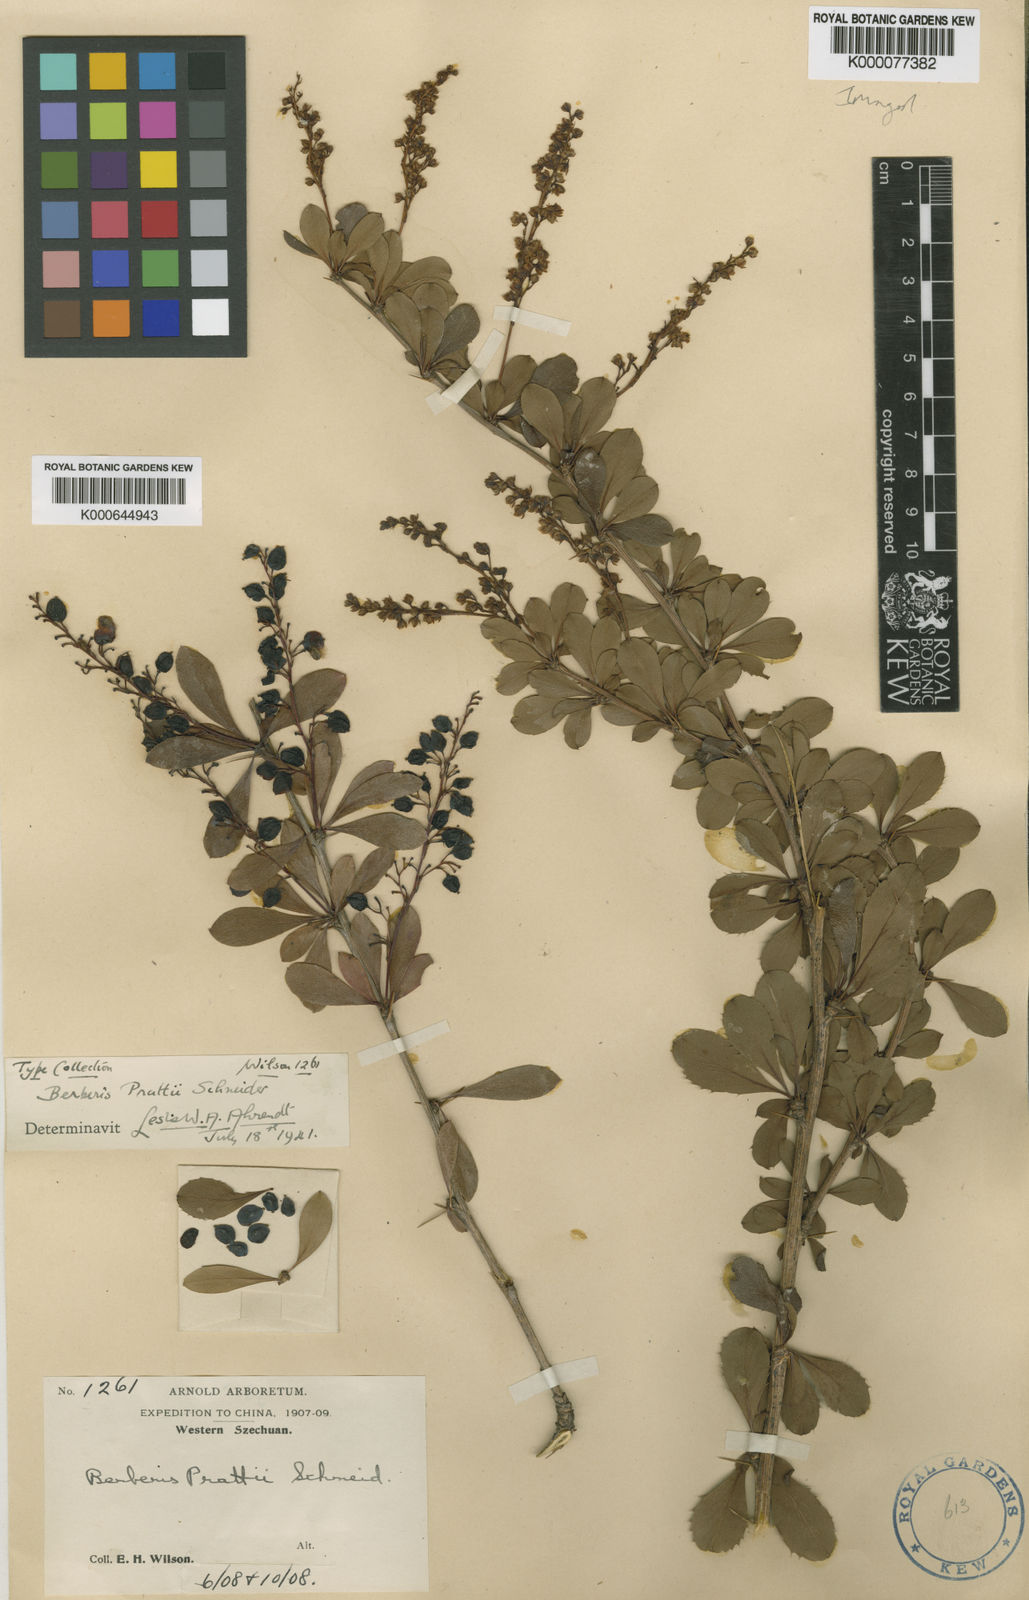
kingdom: Plantae
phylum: Tracheophyta
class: Magnoliopsida
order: Ranunculales
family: Berberidaceae
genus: Berberis
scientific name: Berberis prattii
